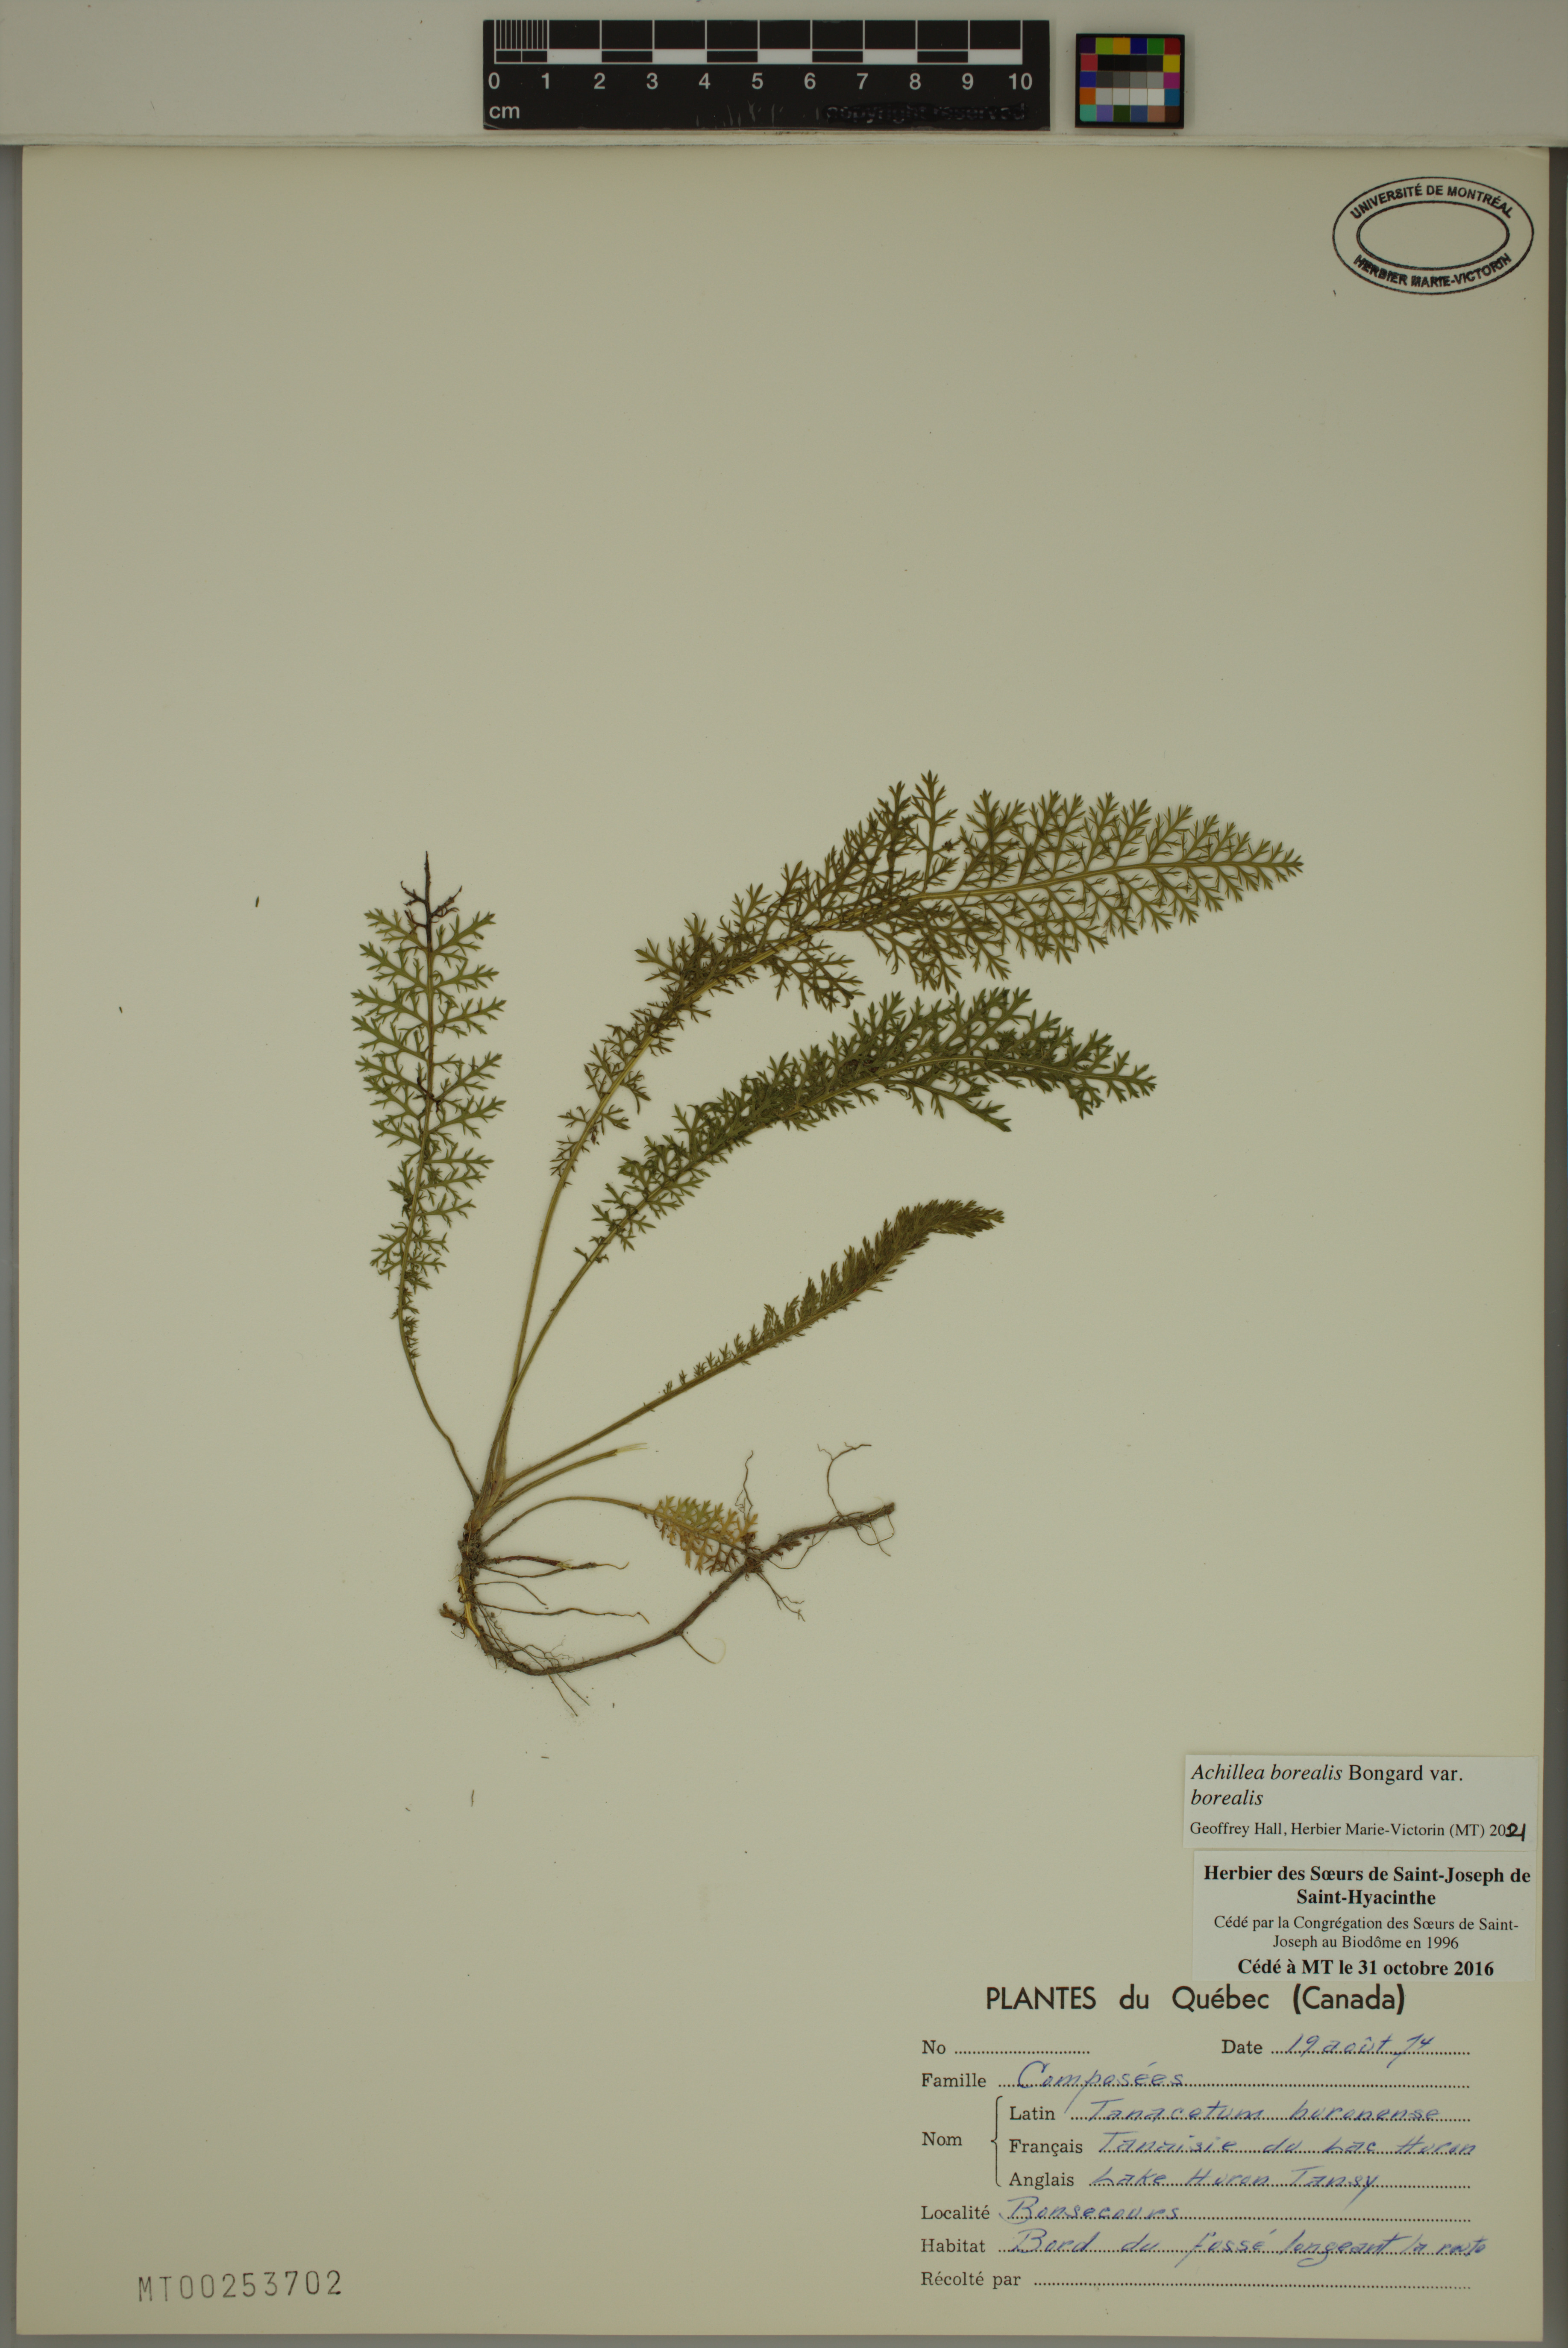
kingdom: Plantae
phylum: Tracheophyta
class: Magnoliopsida
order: Asterales
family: Asteraceae
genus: Achillea
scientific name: Achillea millefolium
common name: Yarrow
